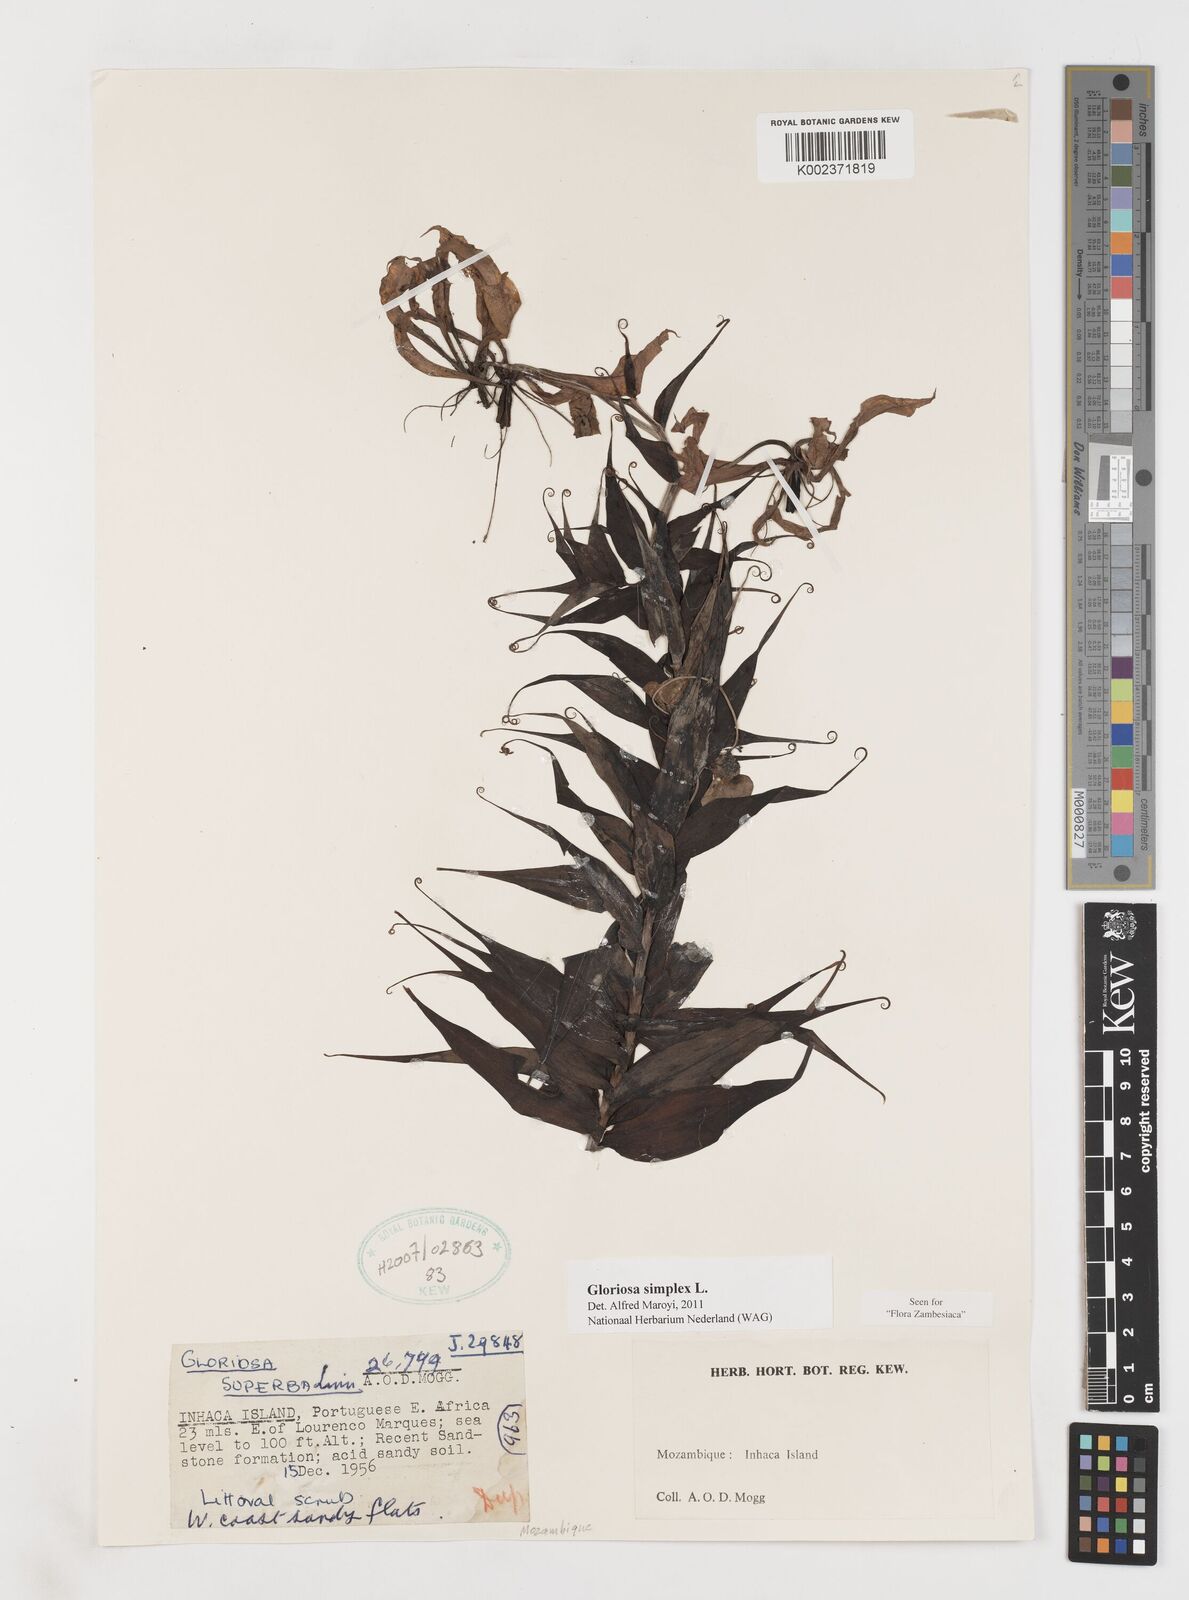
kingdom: Plantae
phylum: Tracheophyta
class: Liliopsida
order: Liliales
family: Colchicaceae
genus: Gloriosa
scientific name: Gloriosa simplex
